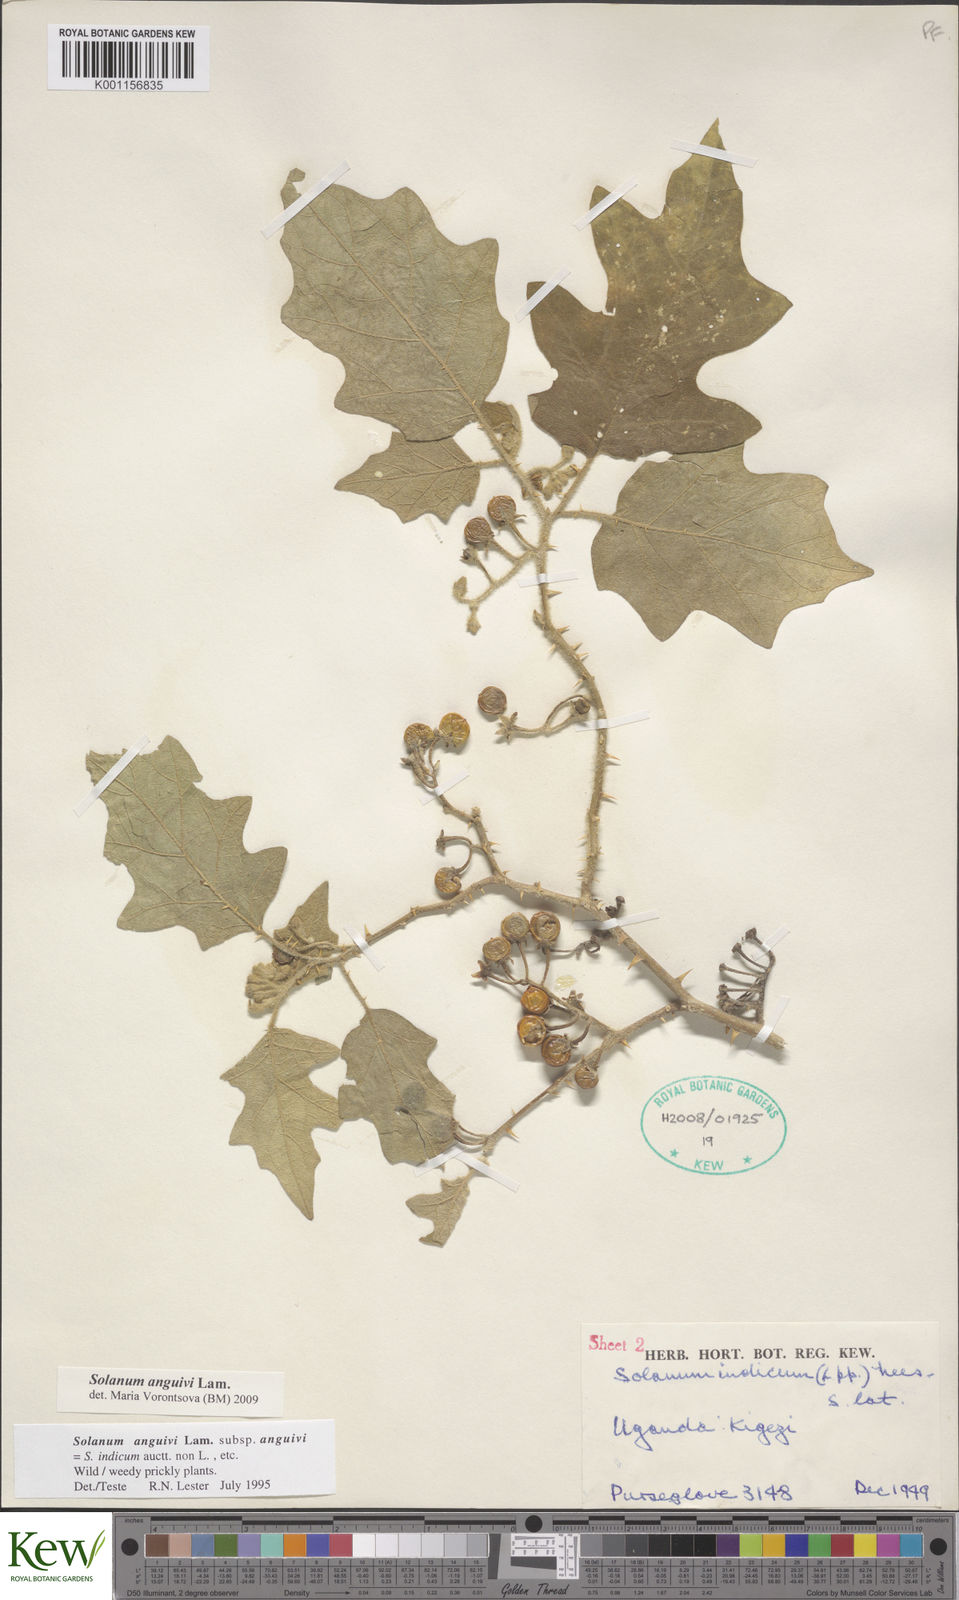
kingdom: Plantae
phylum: Tracheophyta
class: Magnoliopsida
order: Solanales
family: Solanaceae
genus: Solanum
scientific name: Solanum anguivi
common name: Forest bitterberry
